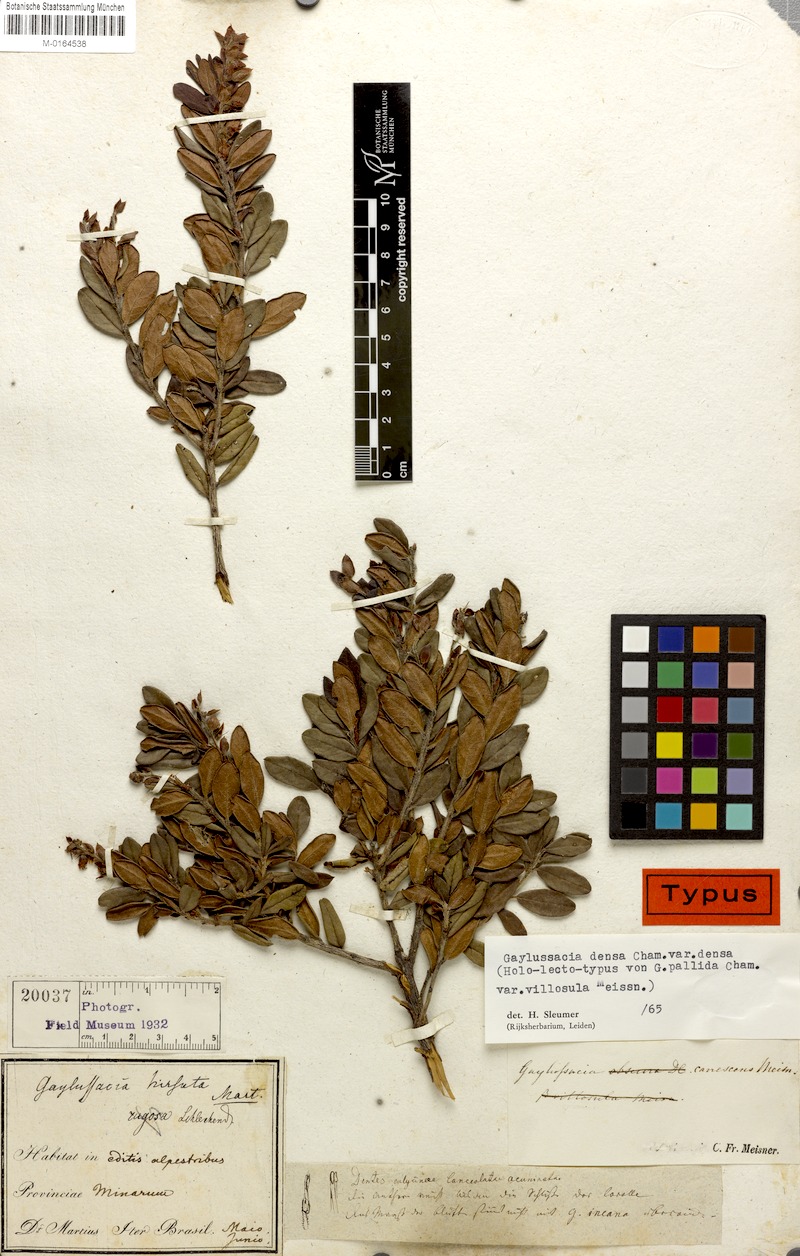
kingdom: Plantae
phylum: Tracheophyta
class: Magnoliopsida
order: Ericales
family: Ericaceae
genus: Gaylussacia
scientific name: Gaylussacia densa
